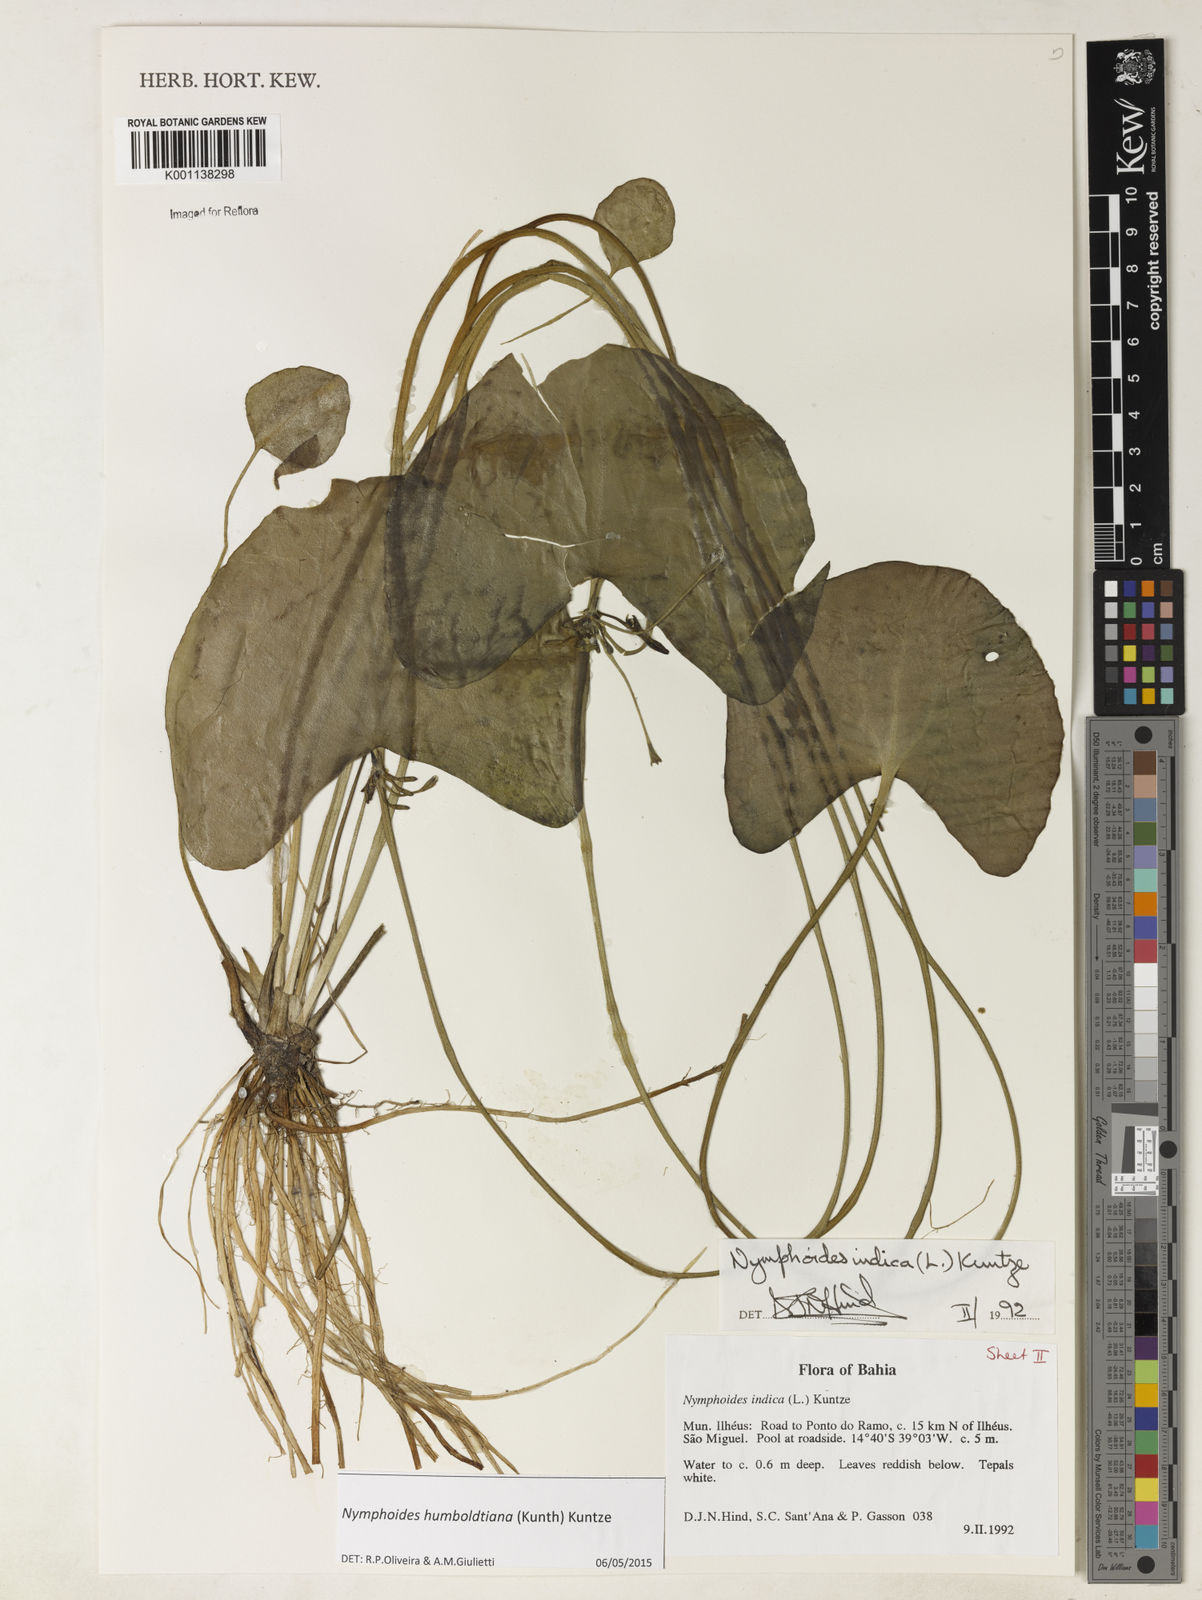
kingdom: Plantae
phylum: Tracheophyta
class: Magnoliopsida
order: Asterales
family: Menyanthaceae
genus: Nymphoides
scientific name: Nymphoides
